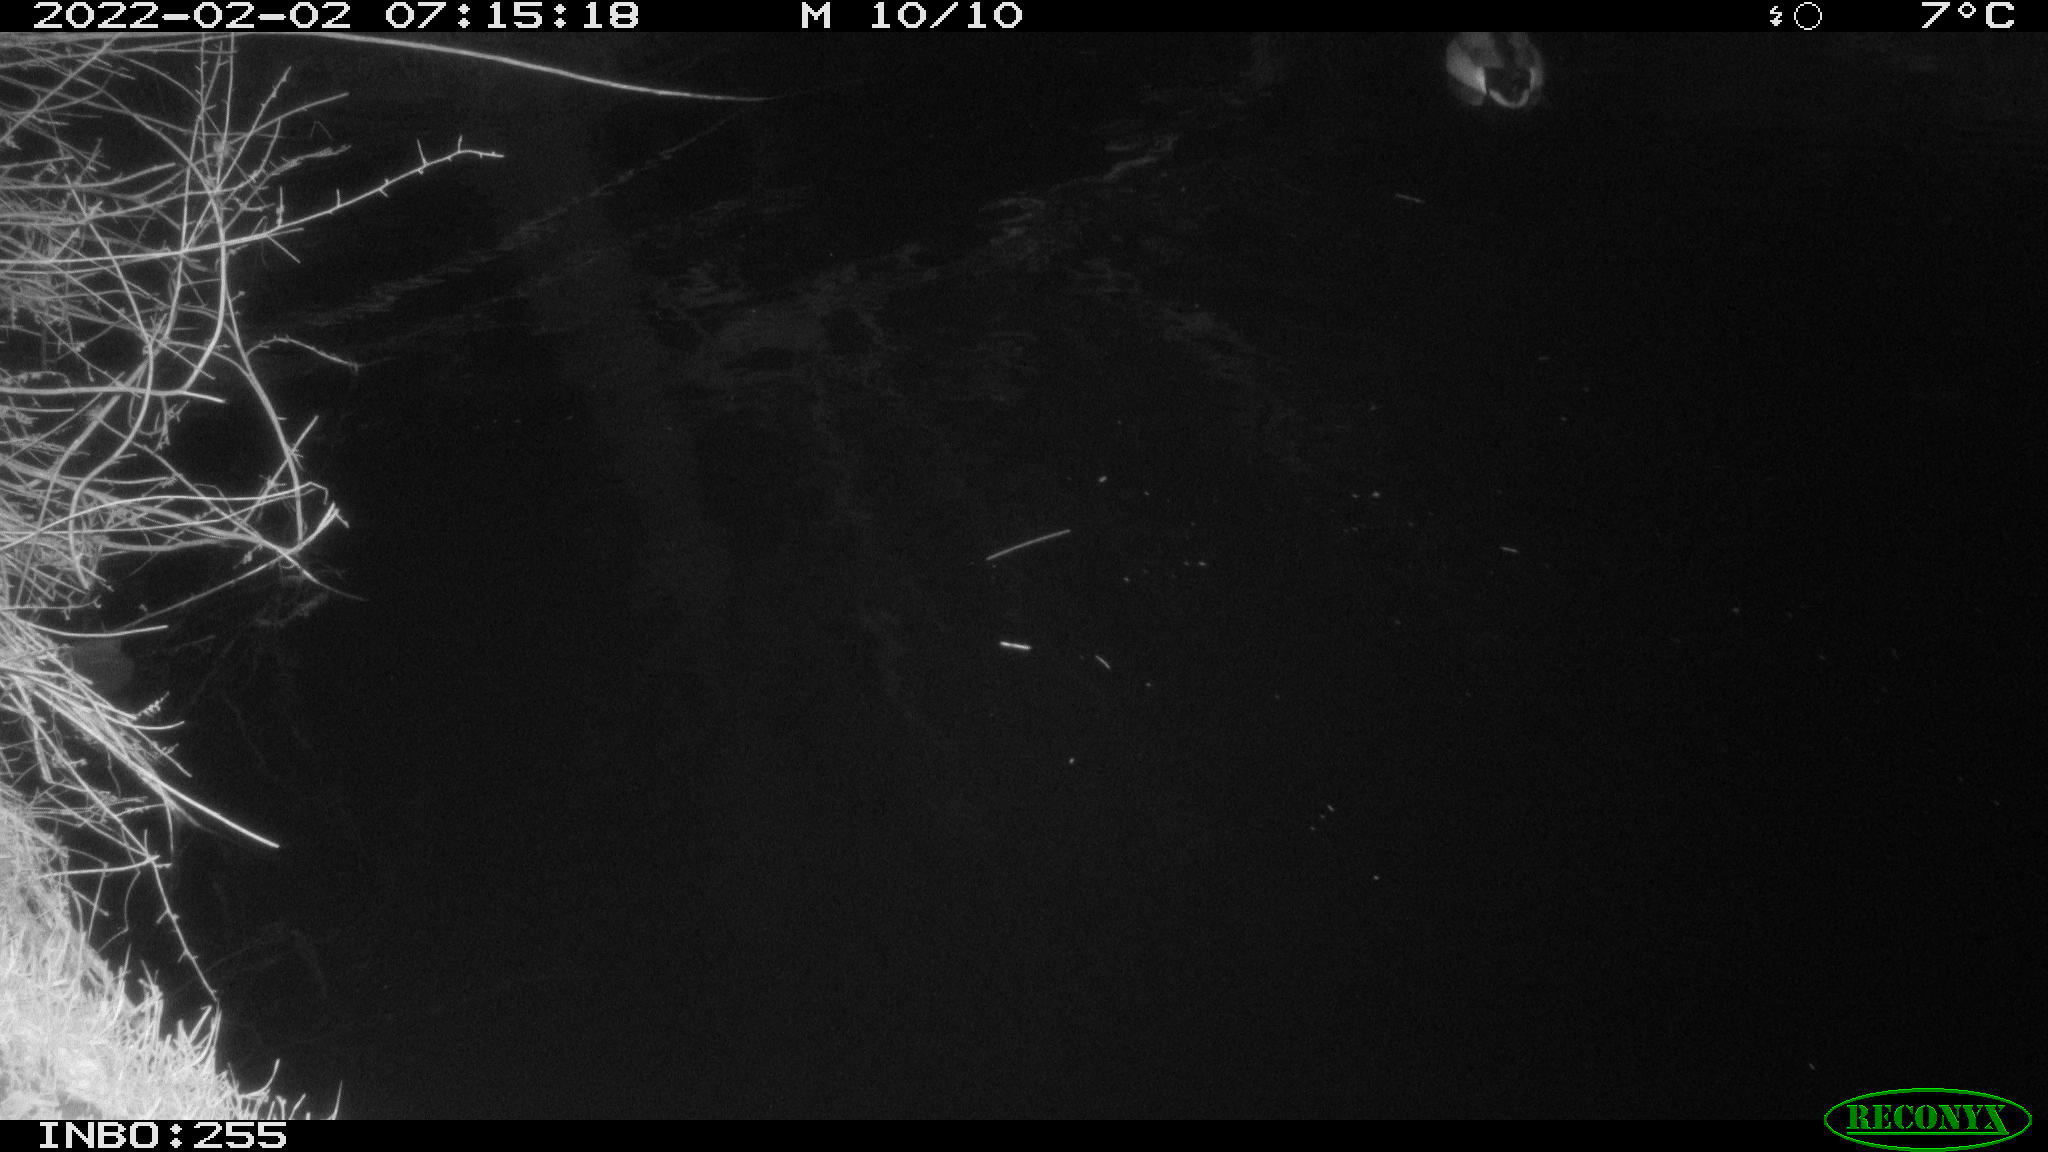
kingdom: Animalia
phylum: Chordata
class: Aves
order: Anseriformes
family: Anatidae
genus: Anas
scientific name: Anas
